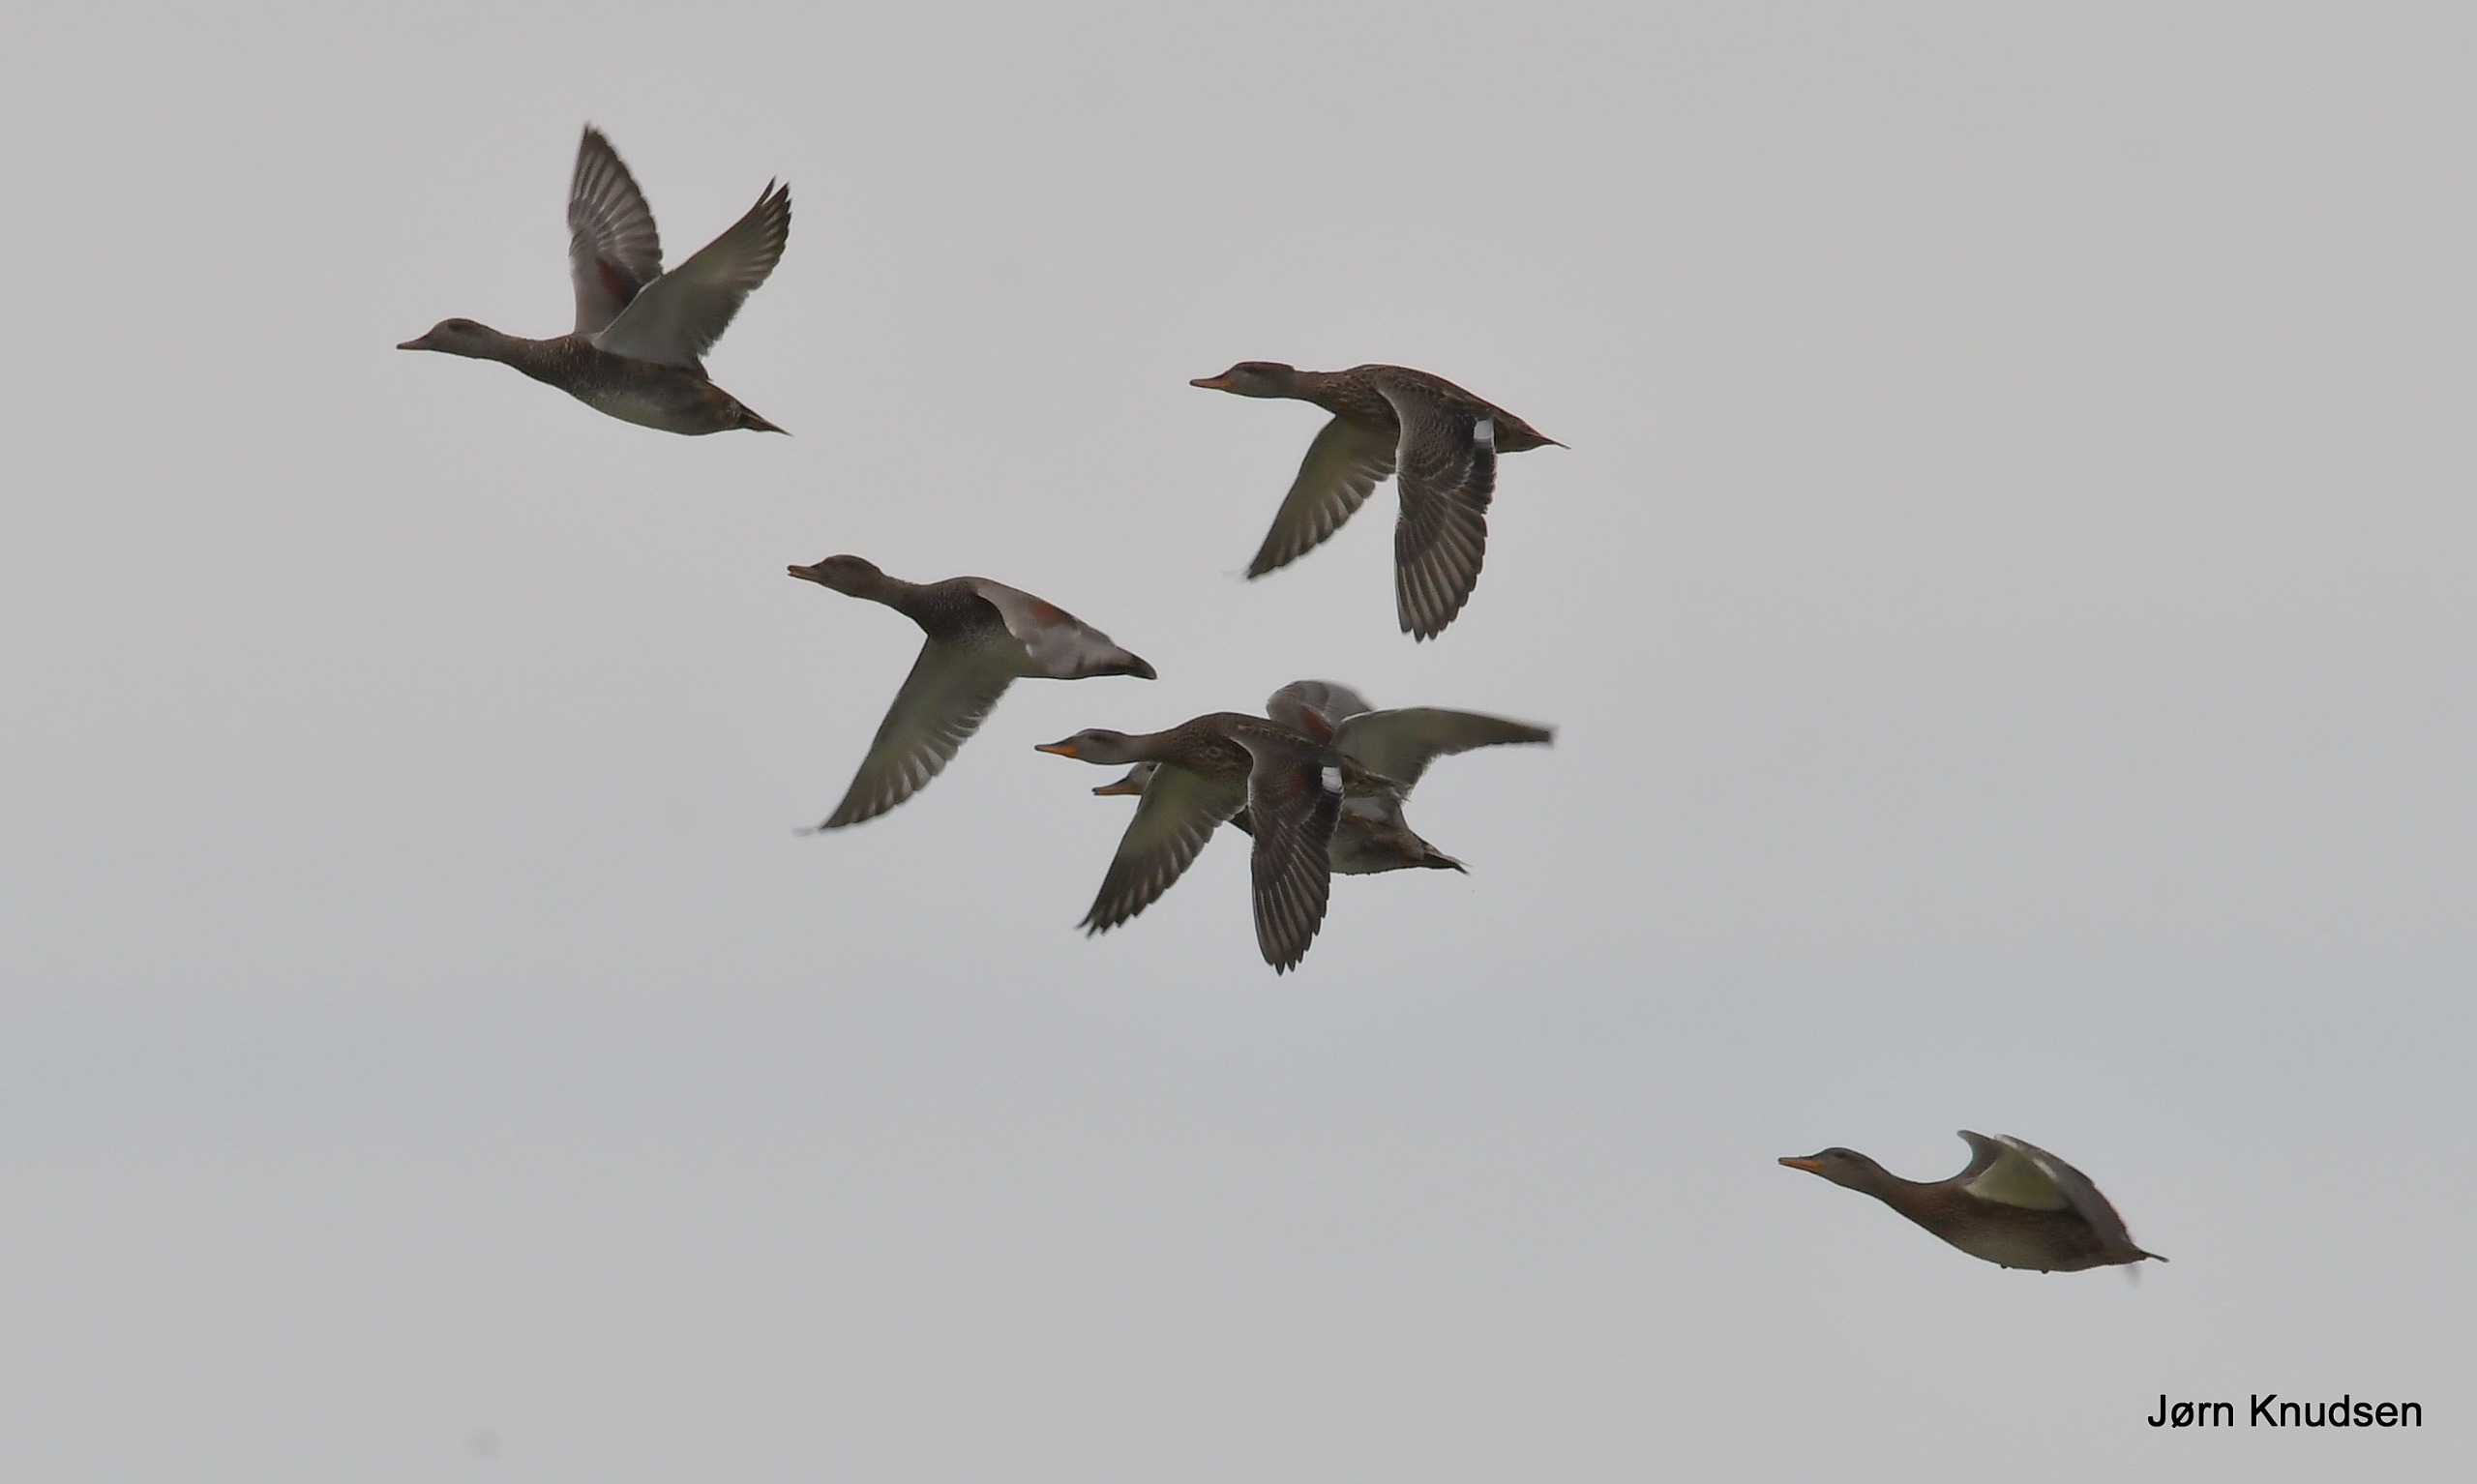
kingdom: Animalia
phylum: Chordata
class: Aves
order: Anseriformes
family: Anatidae
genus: Mareca
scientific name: Mareca strepera
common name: Knarand
